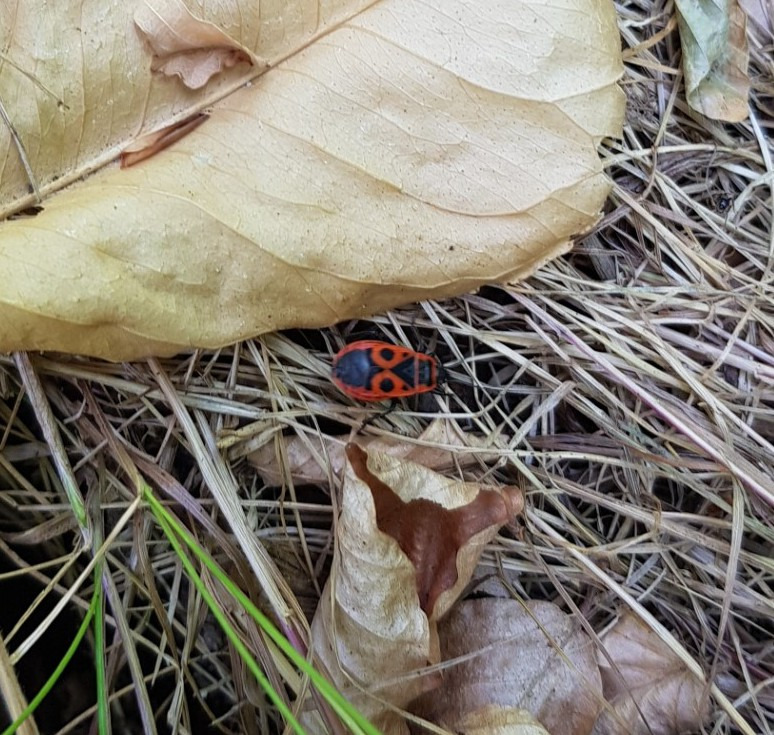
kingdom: Animalia
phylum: Arthropoda
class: Insecta
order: Hemiptera
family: Pyrrhocoridae
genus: Pyrrhocoris
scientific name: Pyrrhocoris apterus
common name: Ildtæge
